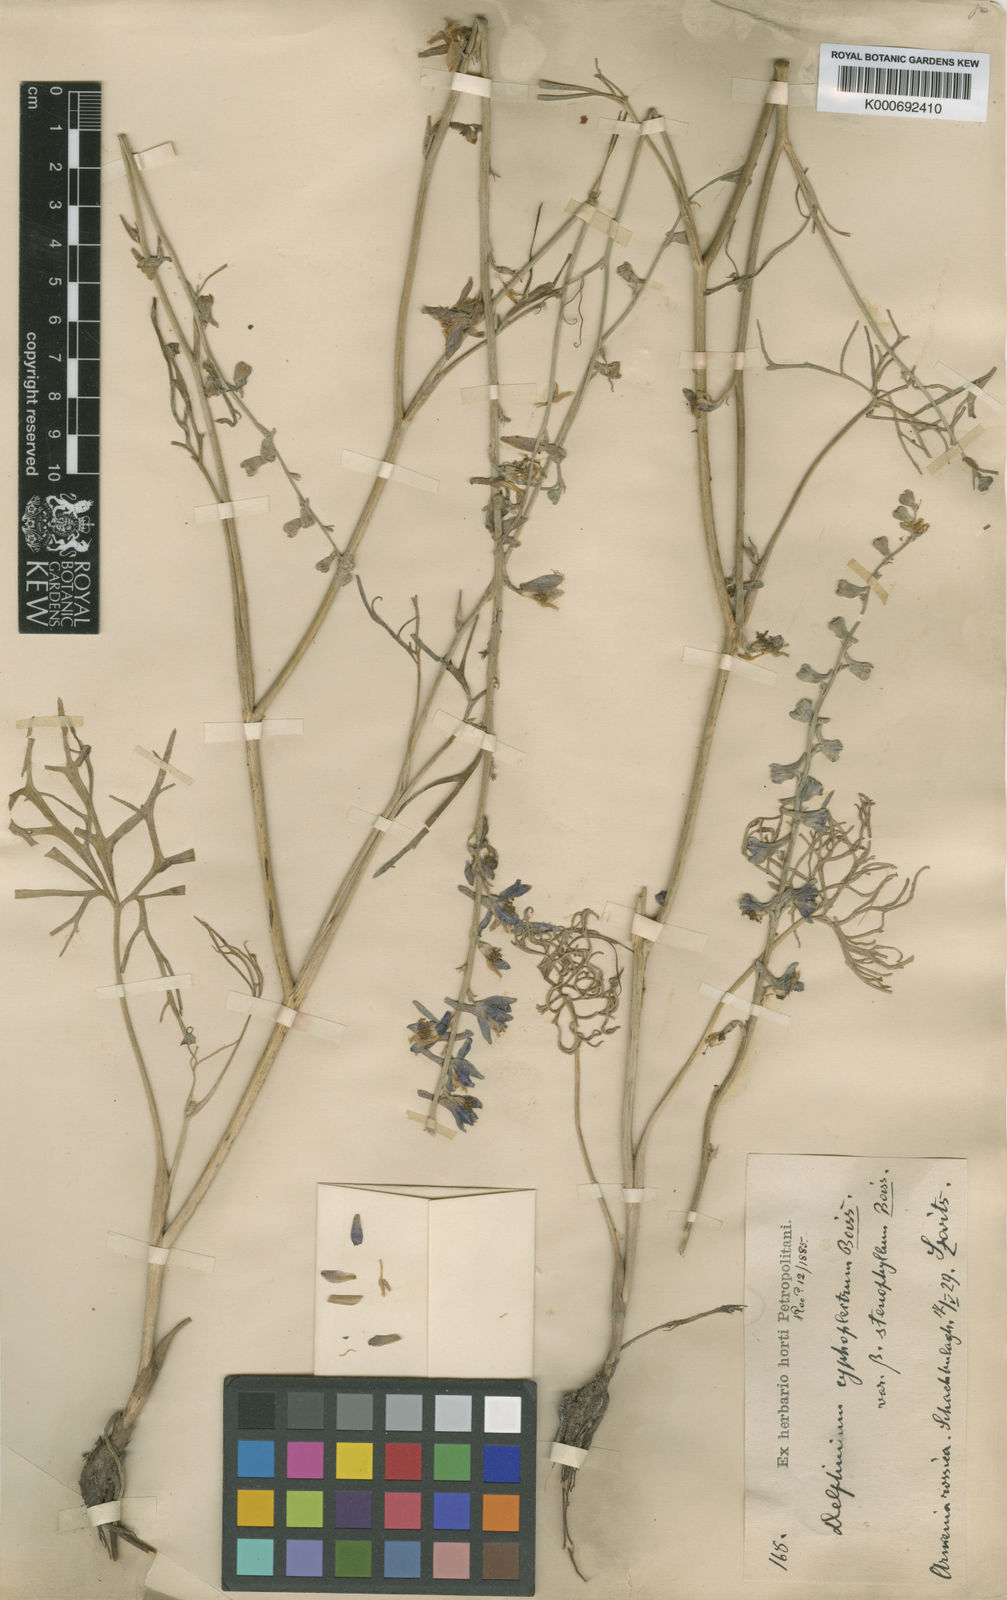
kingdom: Plantae
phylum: Tracheophyta
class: Magnoliopsida
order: Ranunculales
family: Ranunculaceae
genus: Delphinium
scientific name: Delphinium cyphoplectrum
